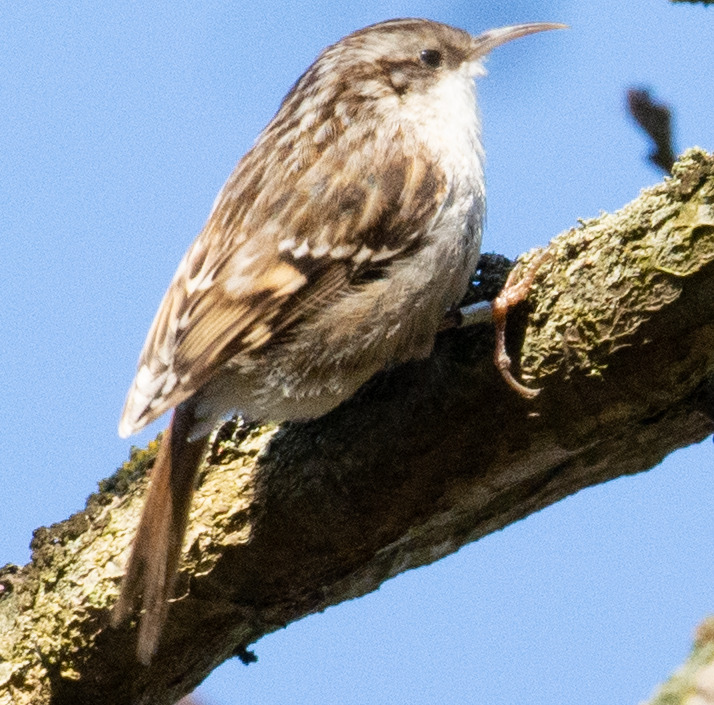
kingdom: Animalia
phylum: Chordata
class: Aves
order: Passeriformes
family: Certhiidae
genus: Certhia
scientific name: Certhia brachydactyla
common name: Korttået træløber
